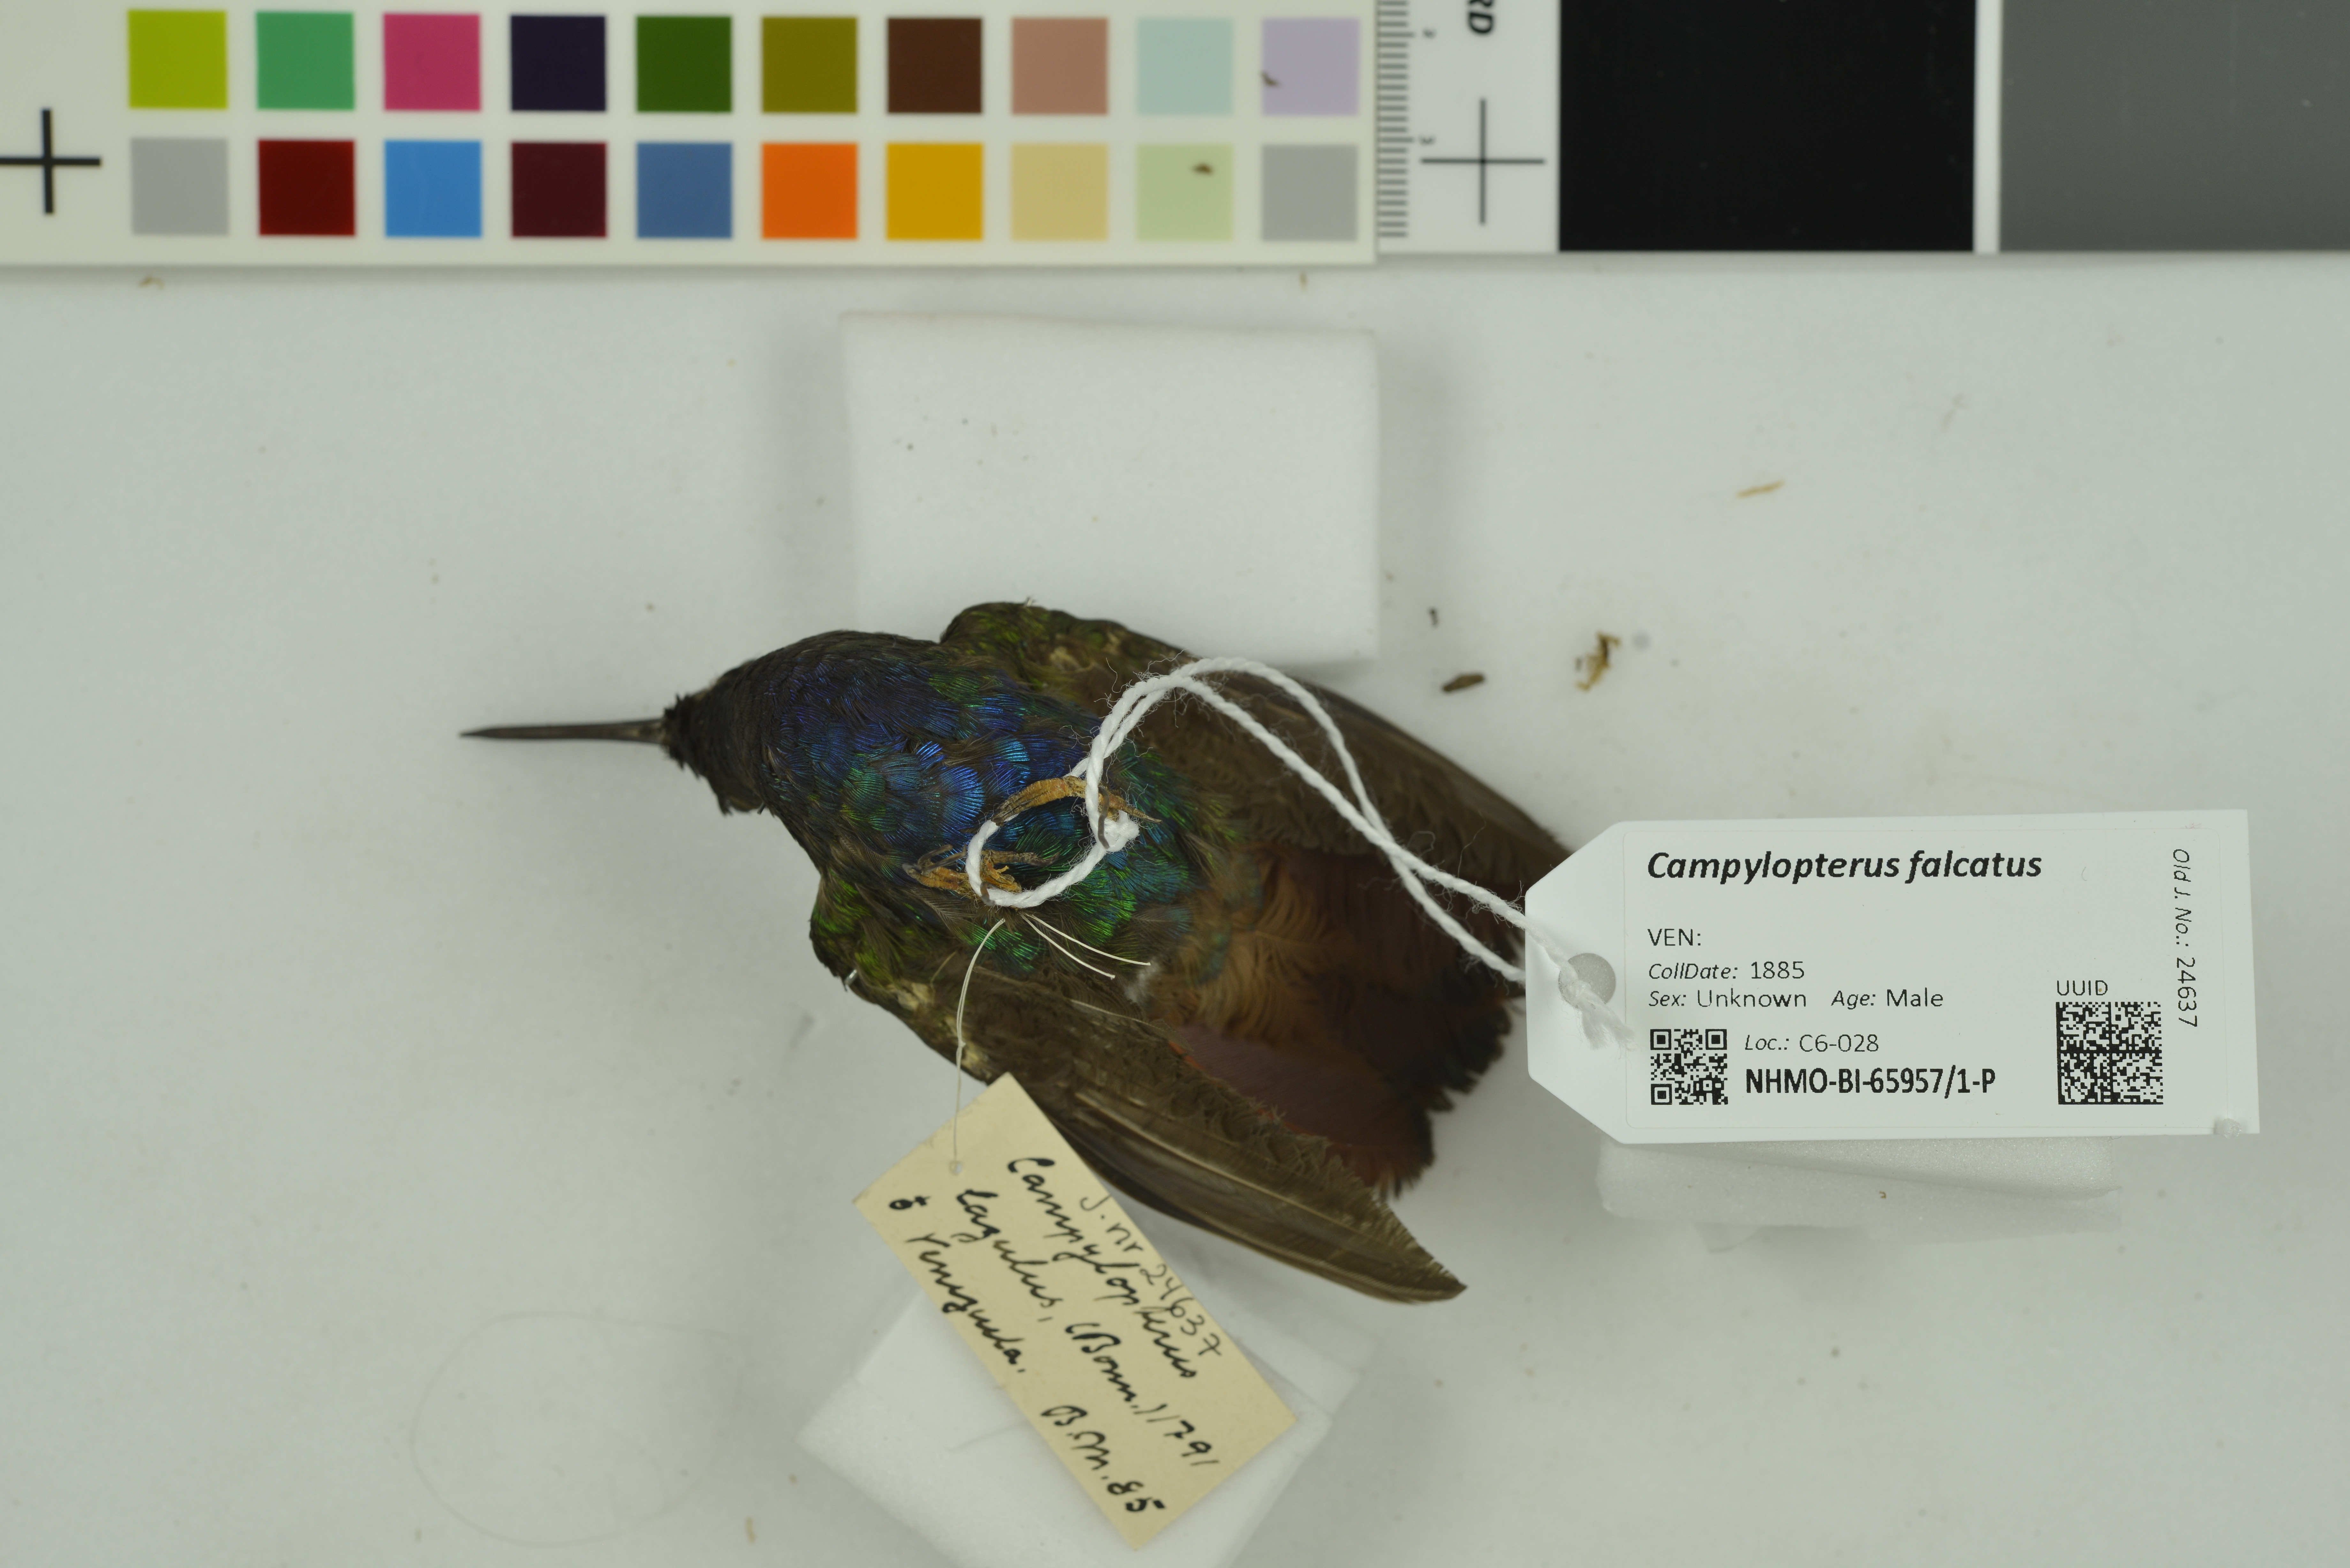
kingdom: Animalia
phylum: Chordata
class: Aves
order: Apodiformes
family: Trochilidae
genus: Campylopterus
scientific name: Campylopterus falcatus
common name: Lazuline sabrewing
